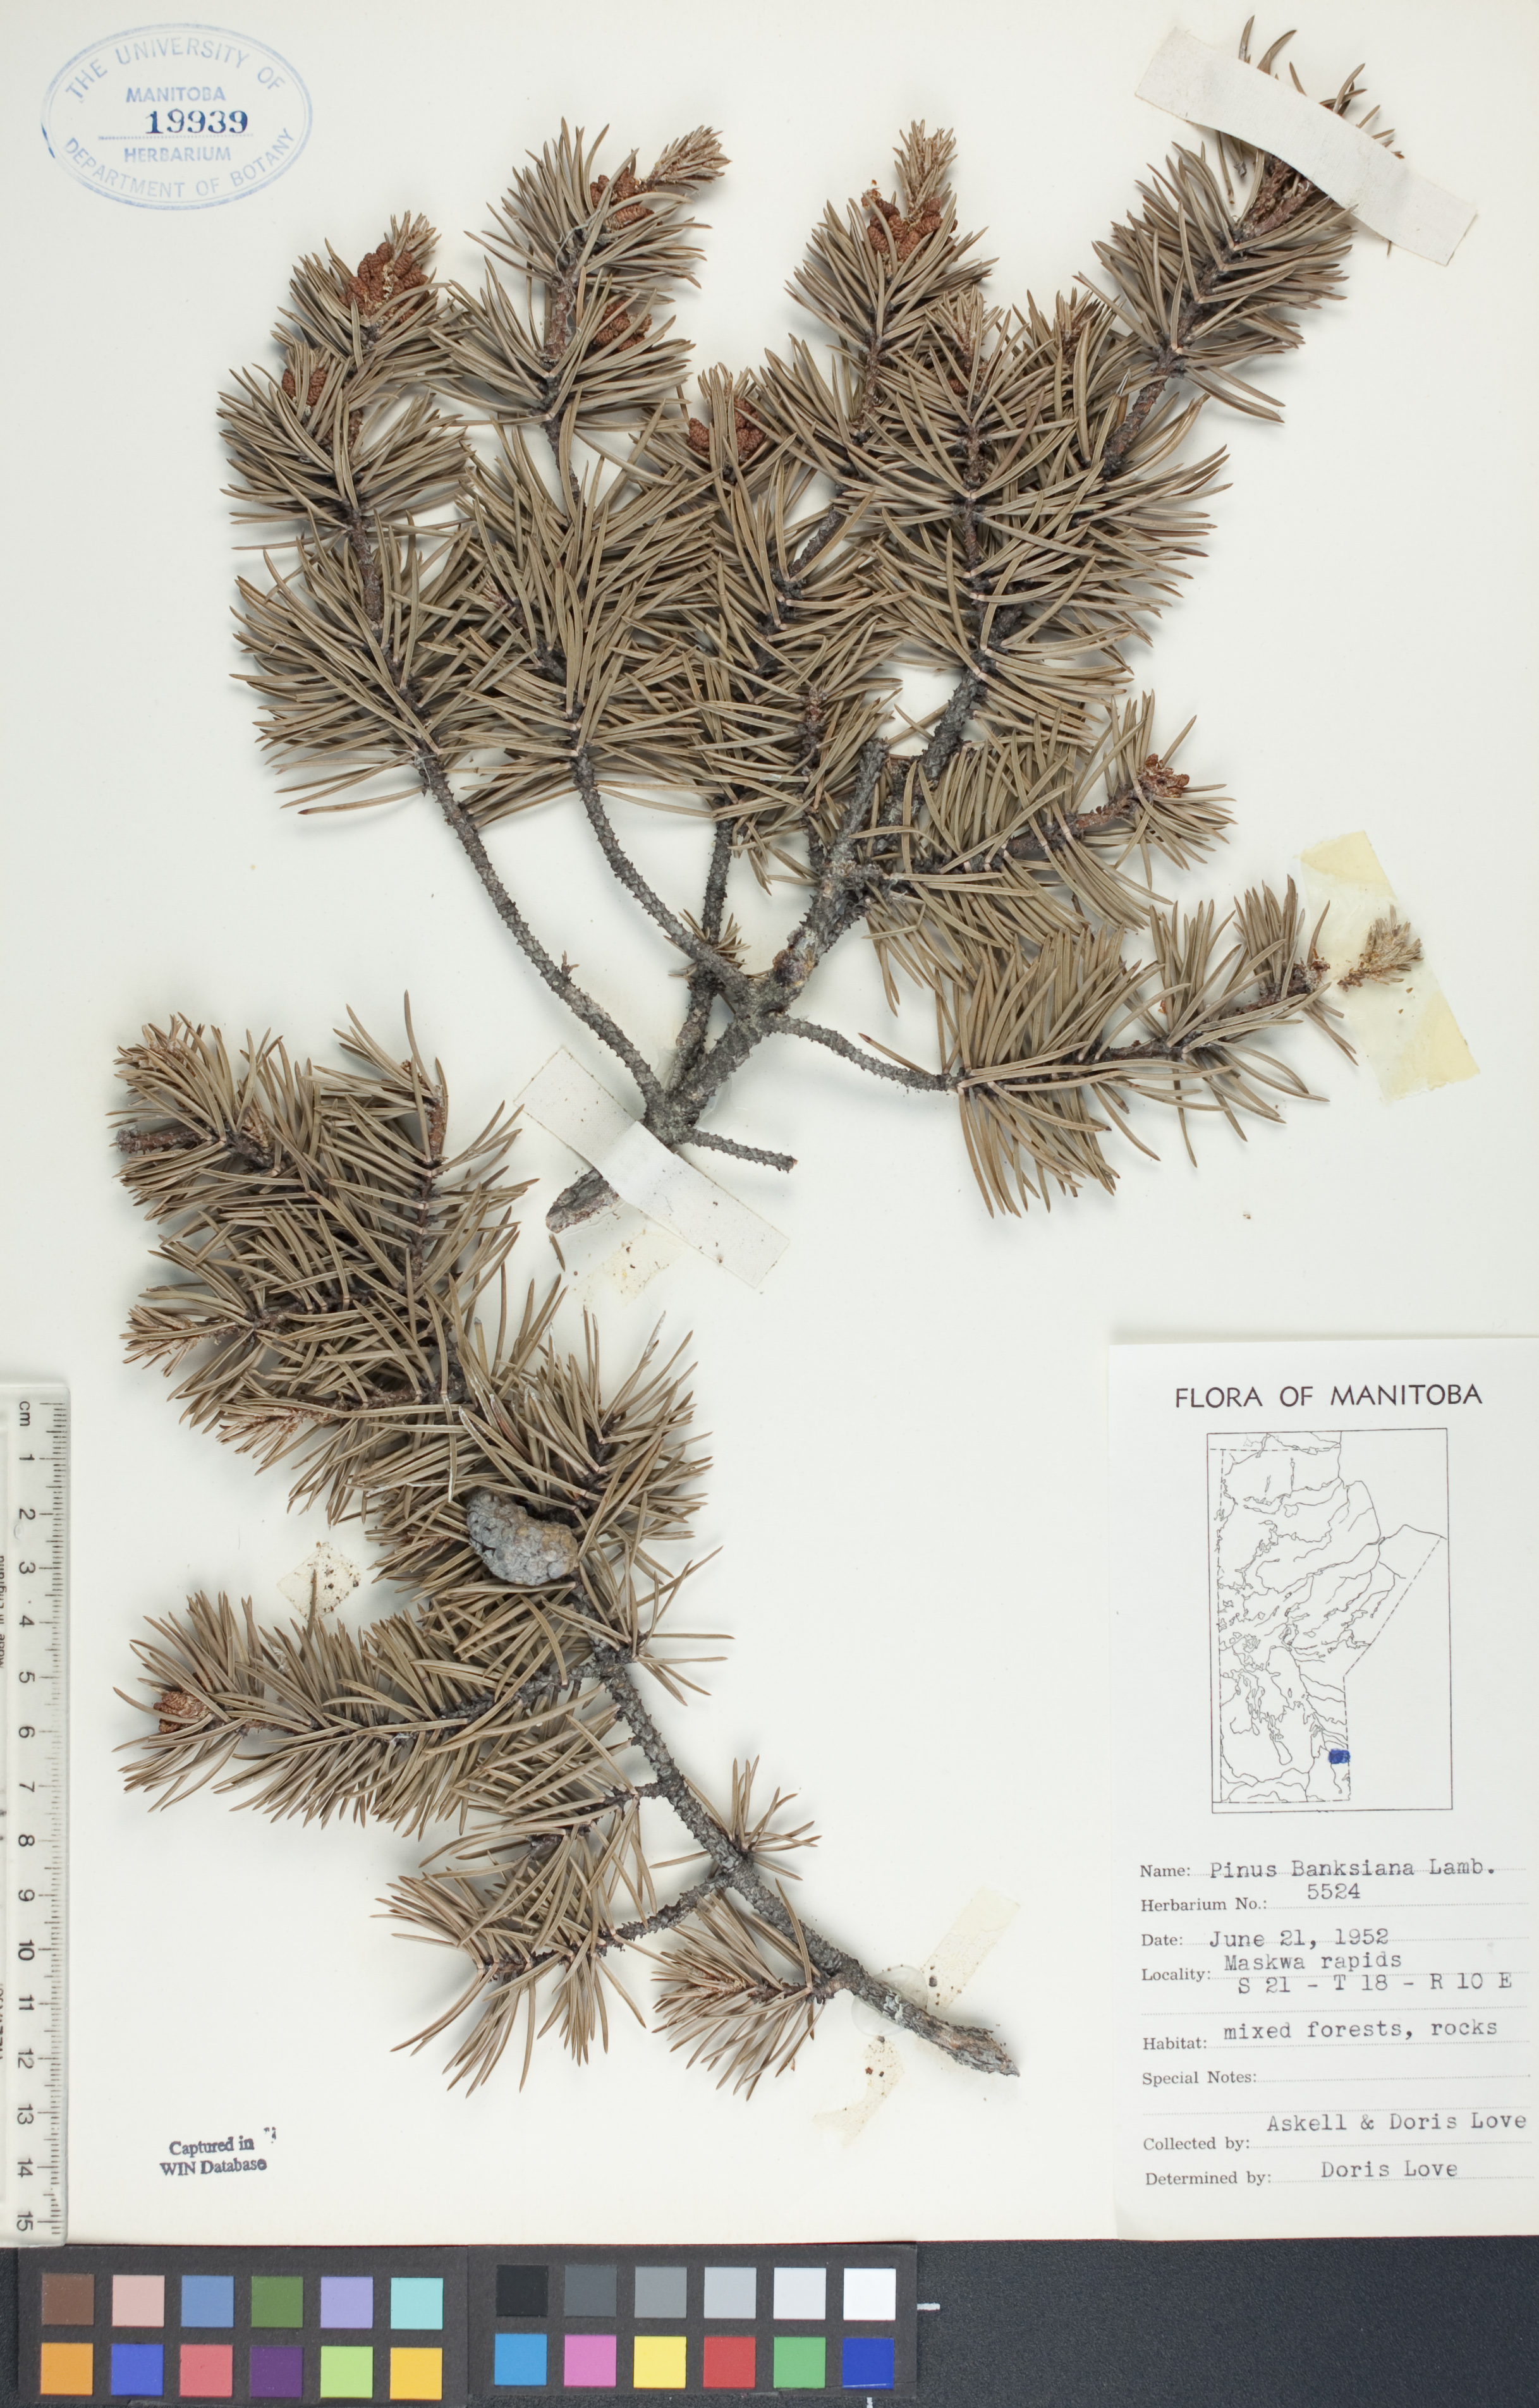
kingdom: Plantae
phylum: Tracheophyta
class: Pinopsida
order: Pinales
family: Pinaceae
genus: Pinus
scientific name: Pinus banksiana
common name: Jack pine
